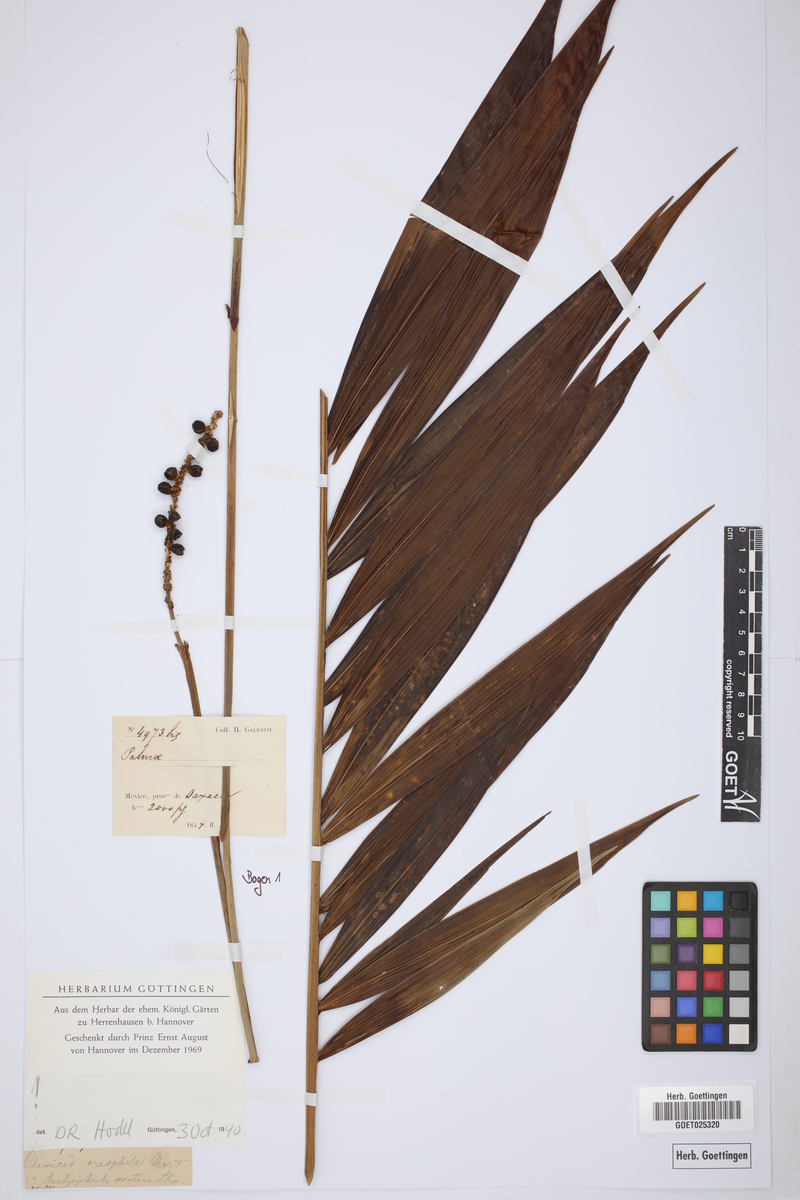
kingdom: Plantae
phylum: Tracheophyta
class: Liliopsida
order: Arecales
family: Arecaceae
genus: Chamaedorea
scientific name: Chamaedorea oreophila
